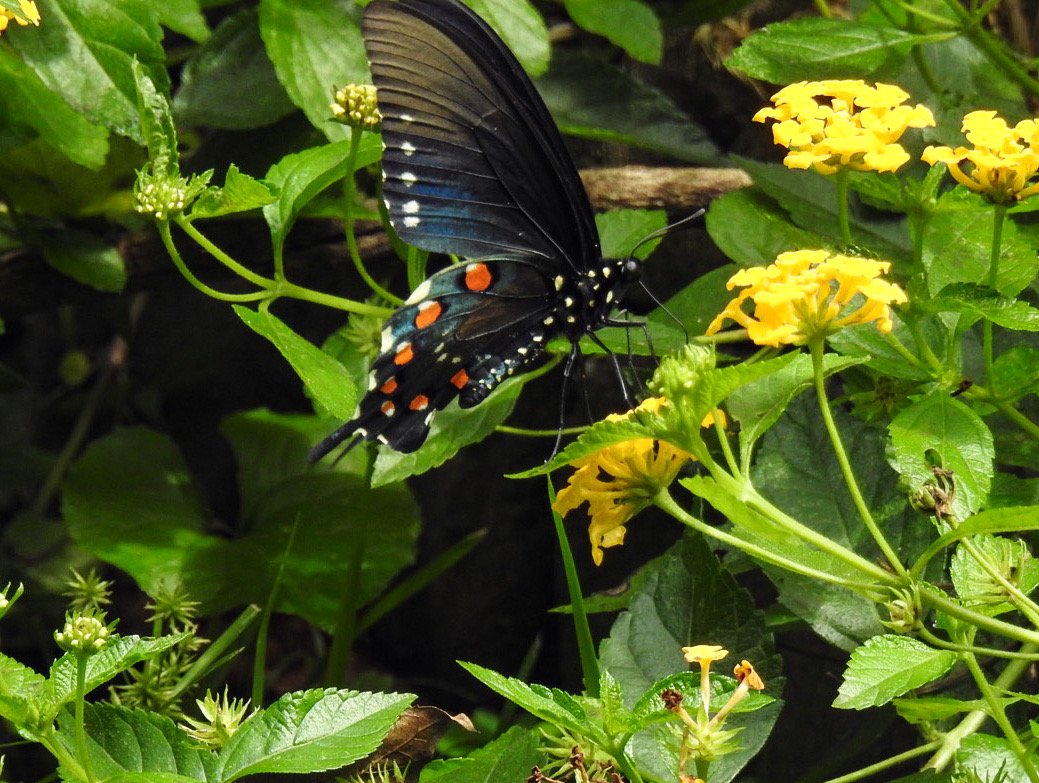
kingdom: Animalia
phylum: Arthropoda
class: Insecta
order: Lepidoptera
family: Papilionidae
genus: Battus
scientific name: Battus philenor
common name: Pipevine Swallowtail
